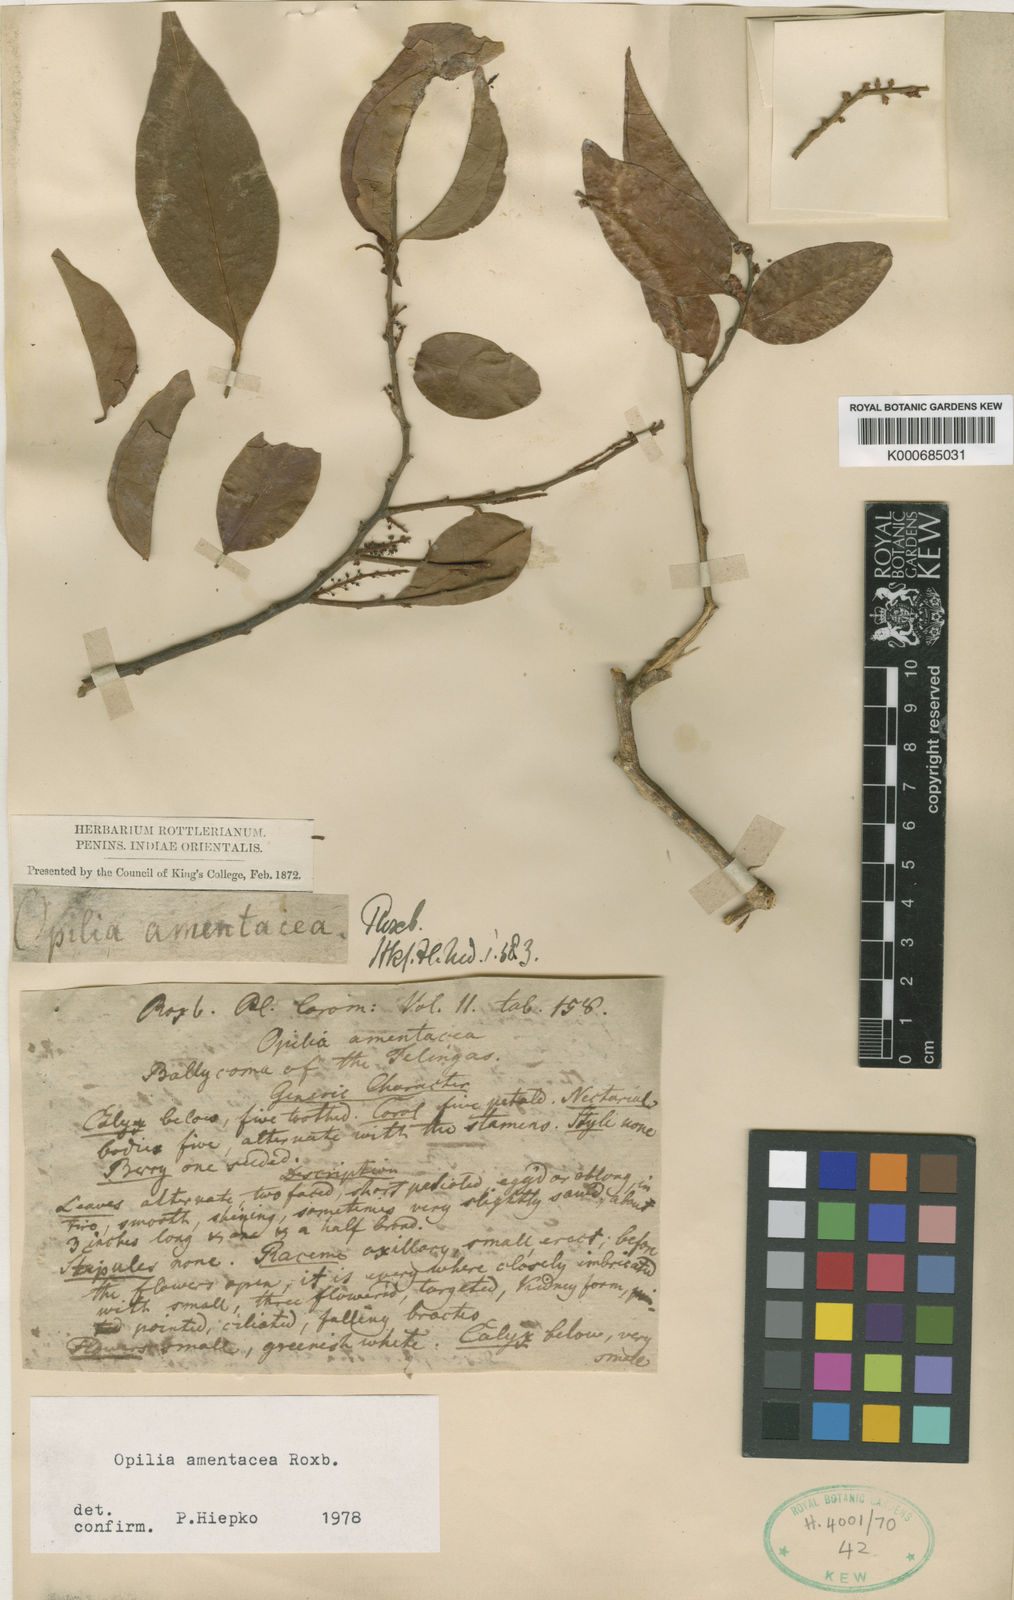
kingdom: Plantae
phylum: Tracheophyta
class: Magnoliopsida
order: Santalales
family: Opiliaceae
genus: Opilia
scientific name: Opilia amentacea
